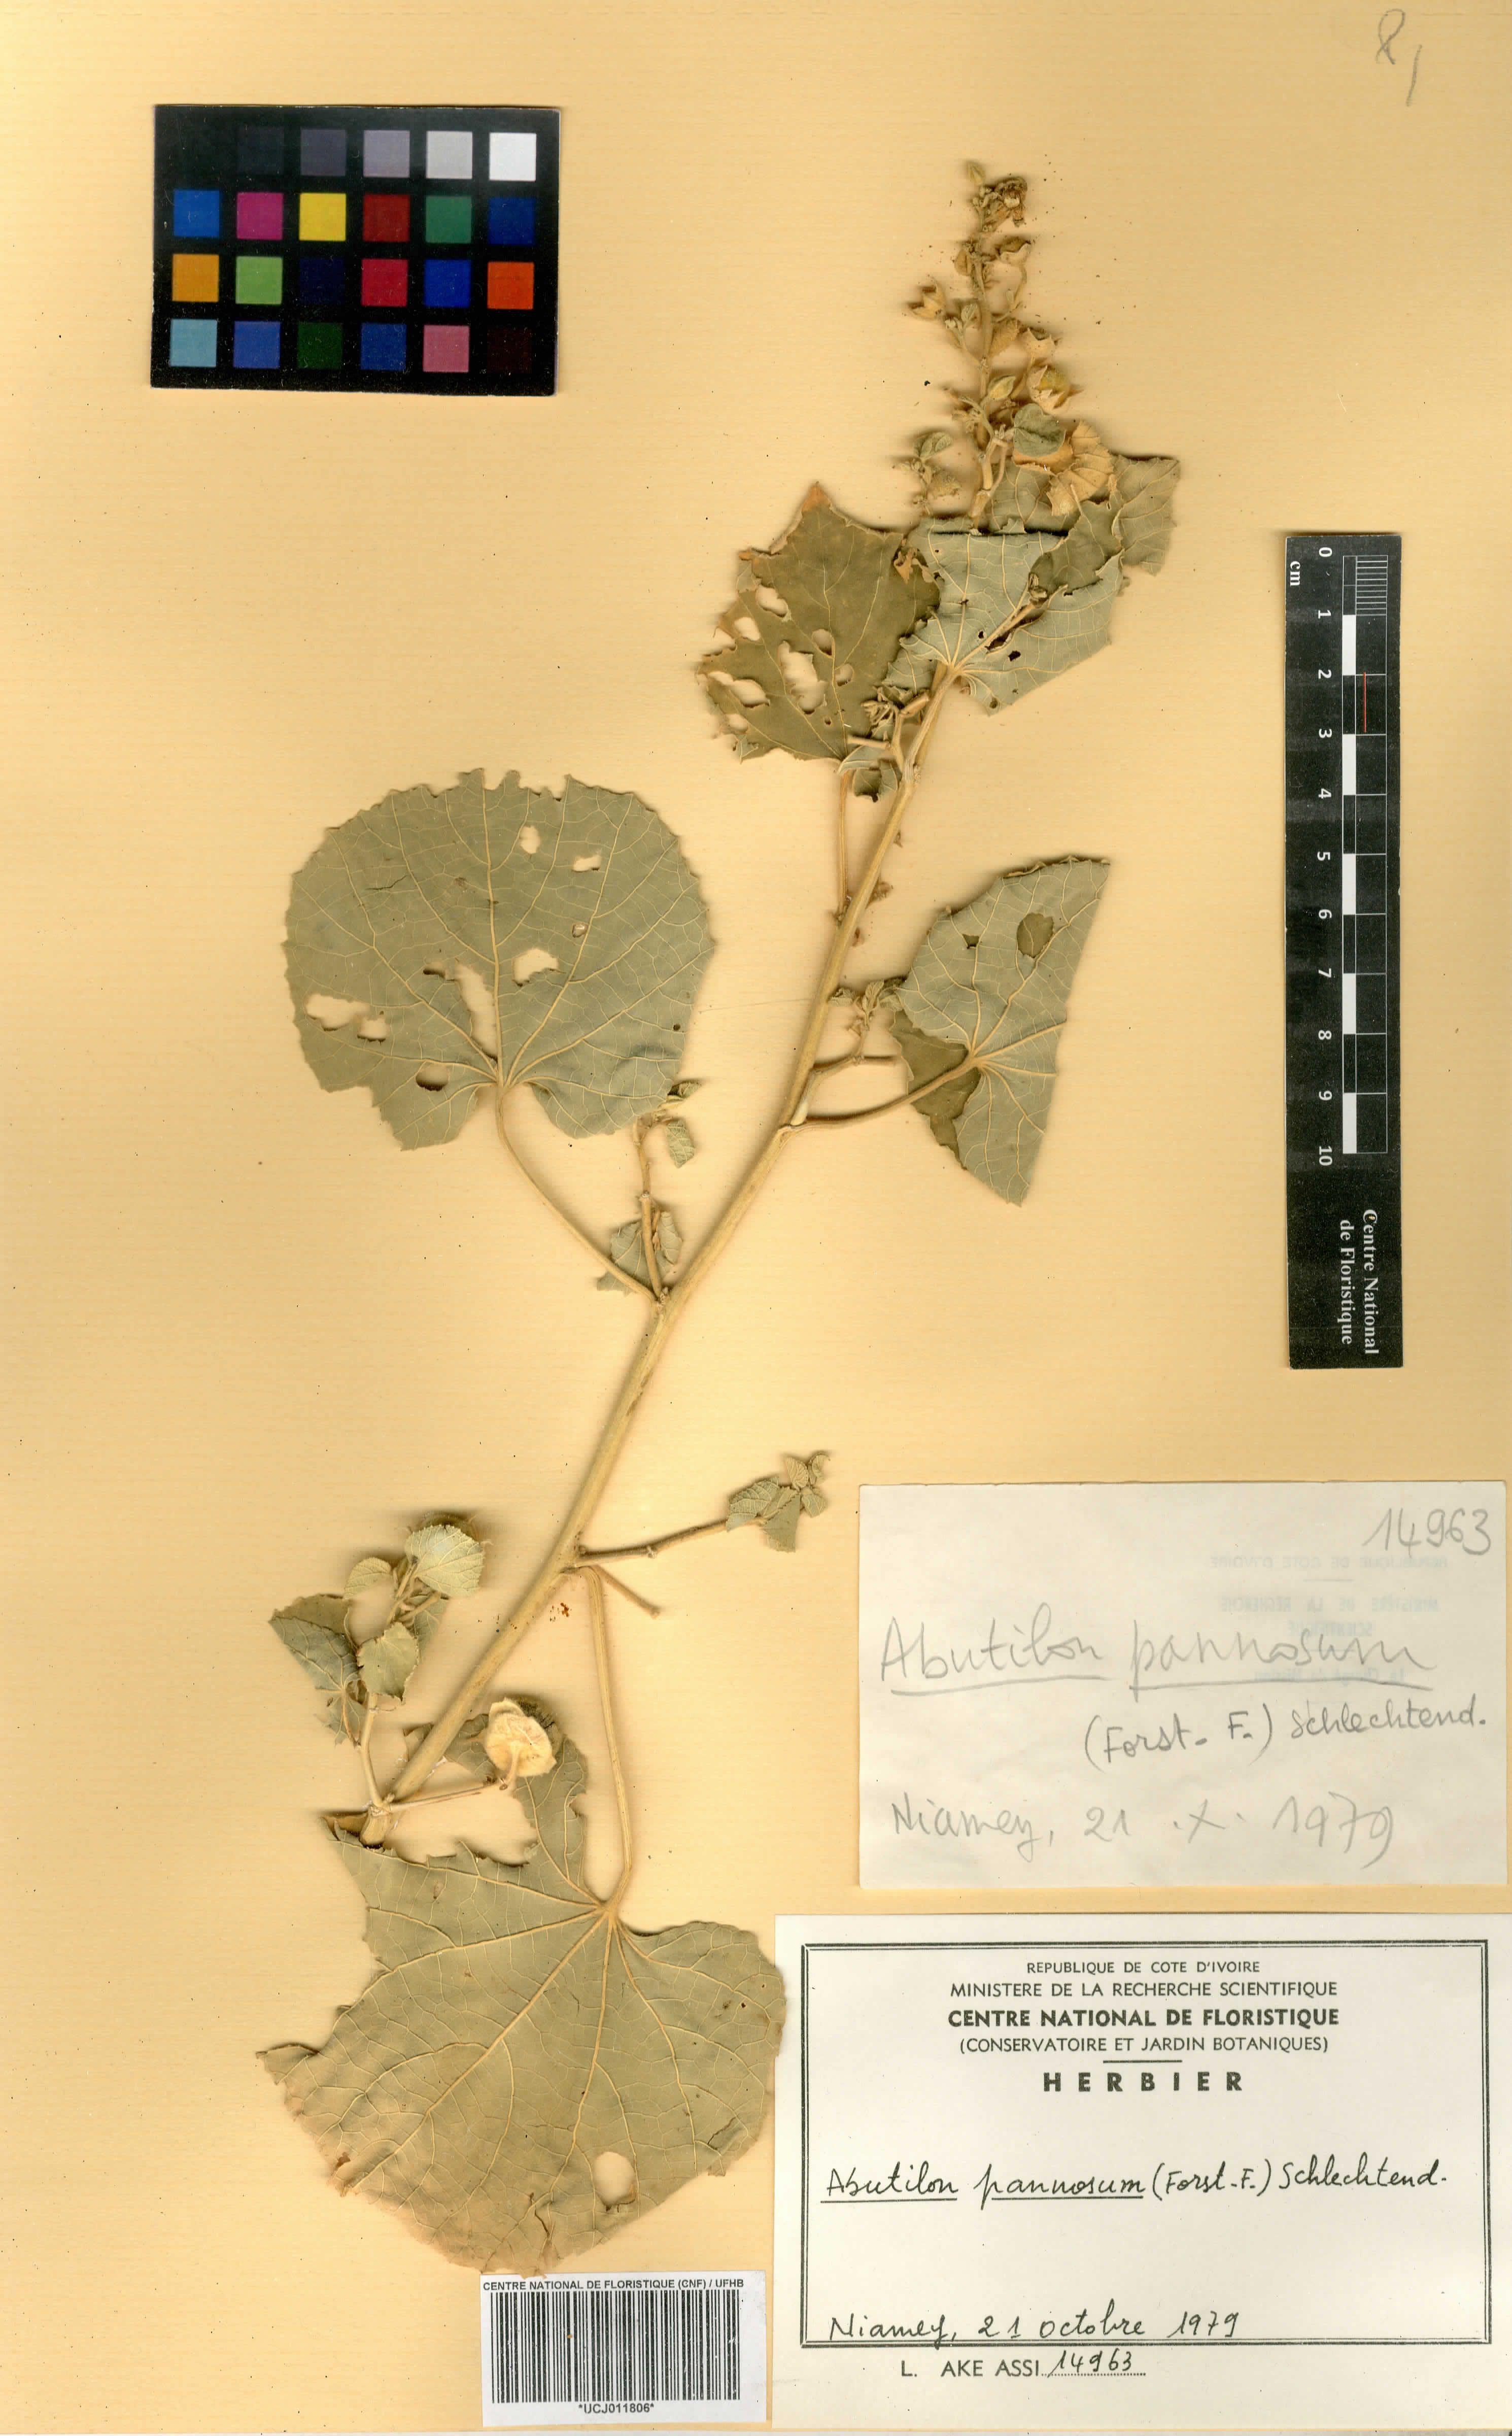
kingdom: Plantae
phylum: Tracheophyta
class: Magnoliopsida
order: Malvales
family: Malvaceae
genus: Abutilon
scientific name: Abutilon pannosum
